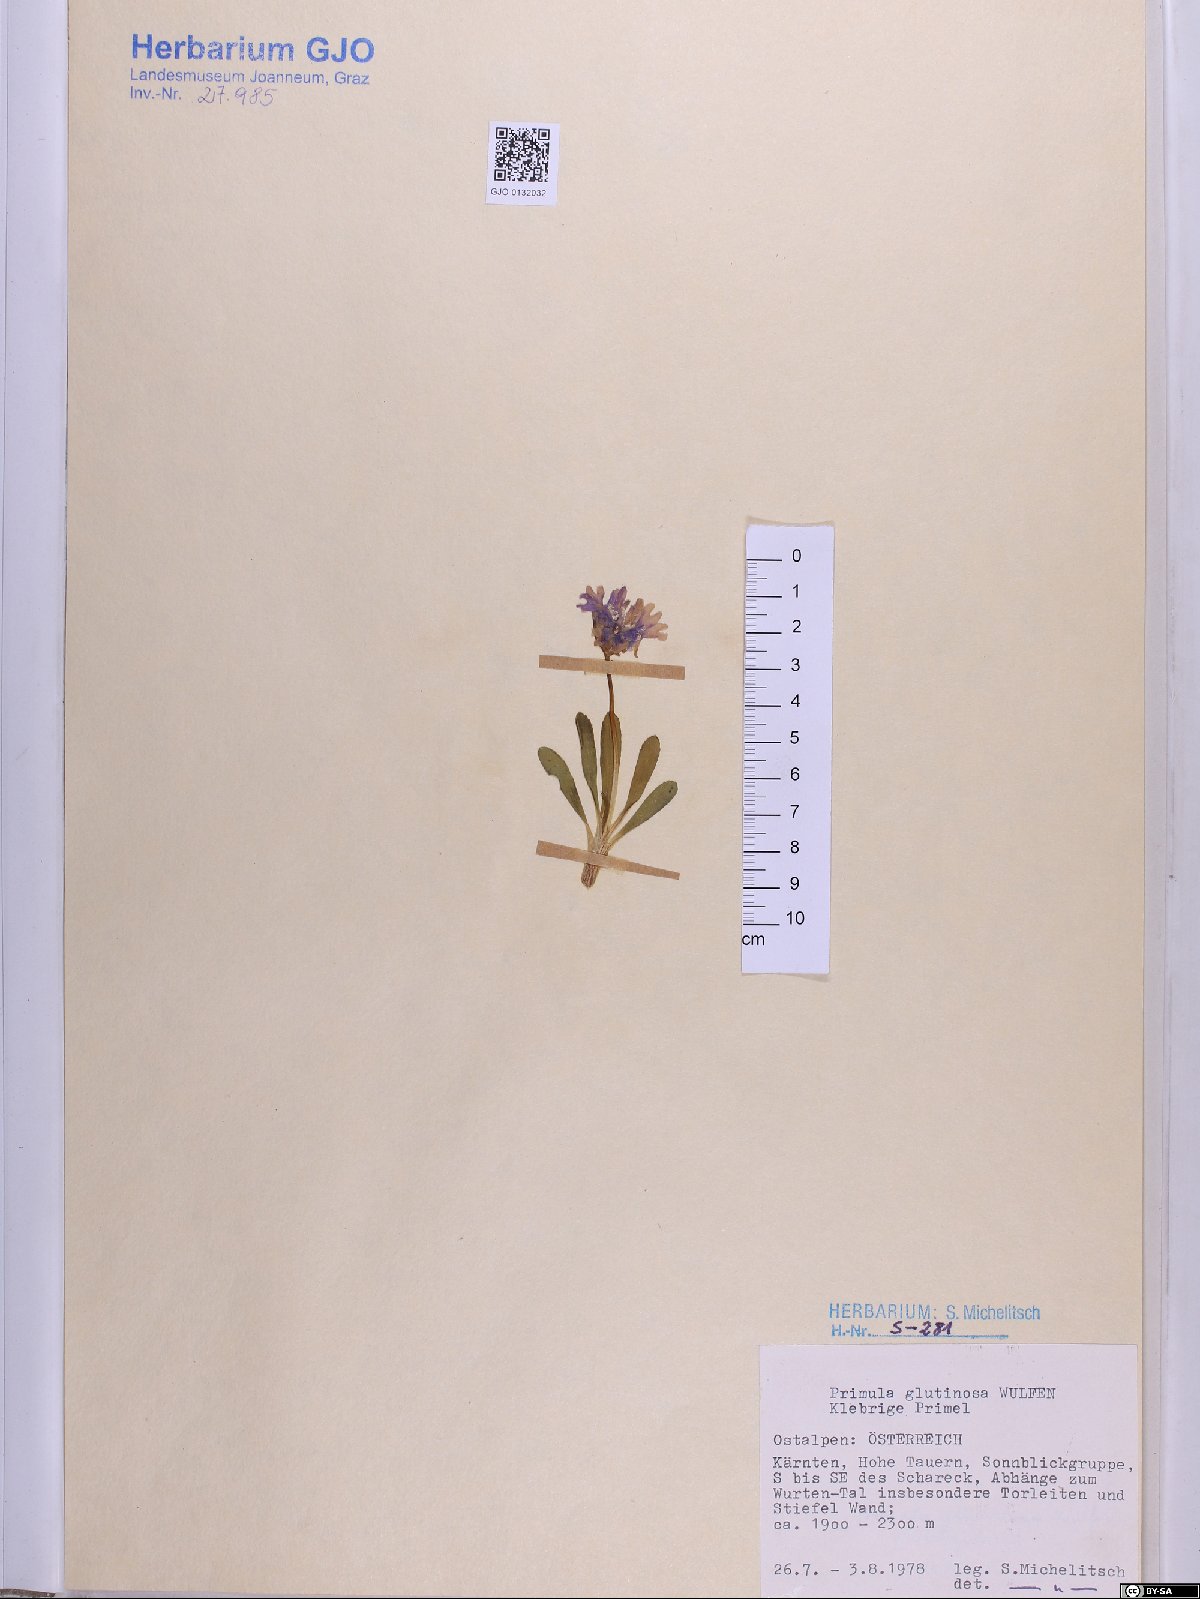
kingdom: Plantae
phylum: Tracheophyta
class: Magnoliopsida
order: Ericales
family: Primulaceae
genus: Primula
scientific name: Primula glutinosa
